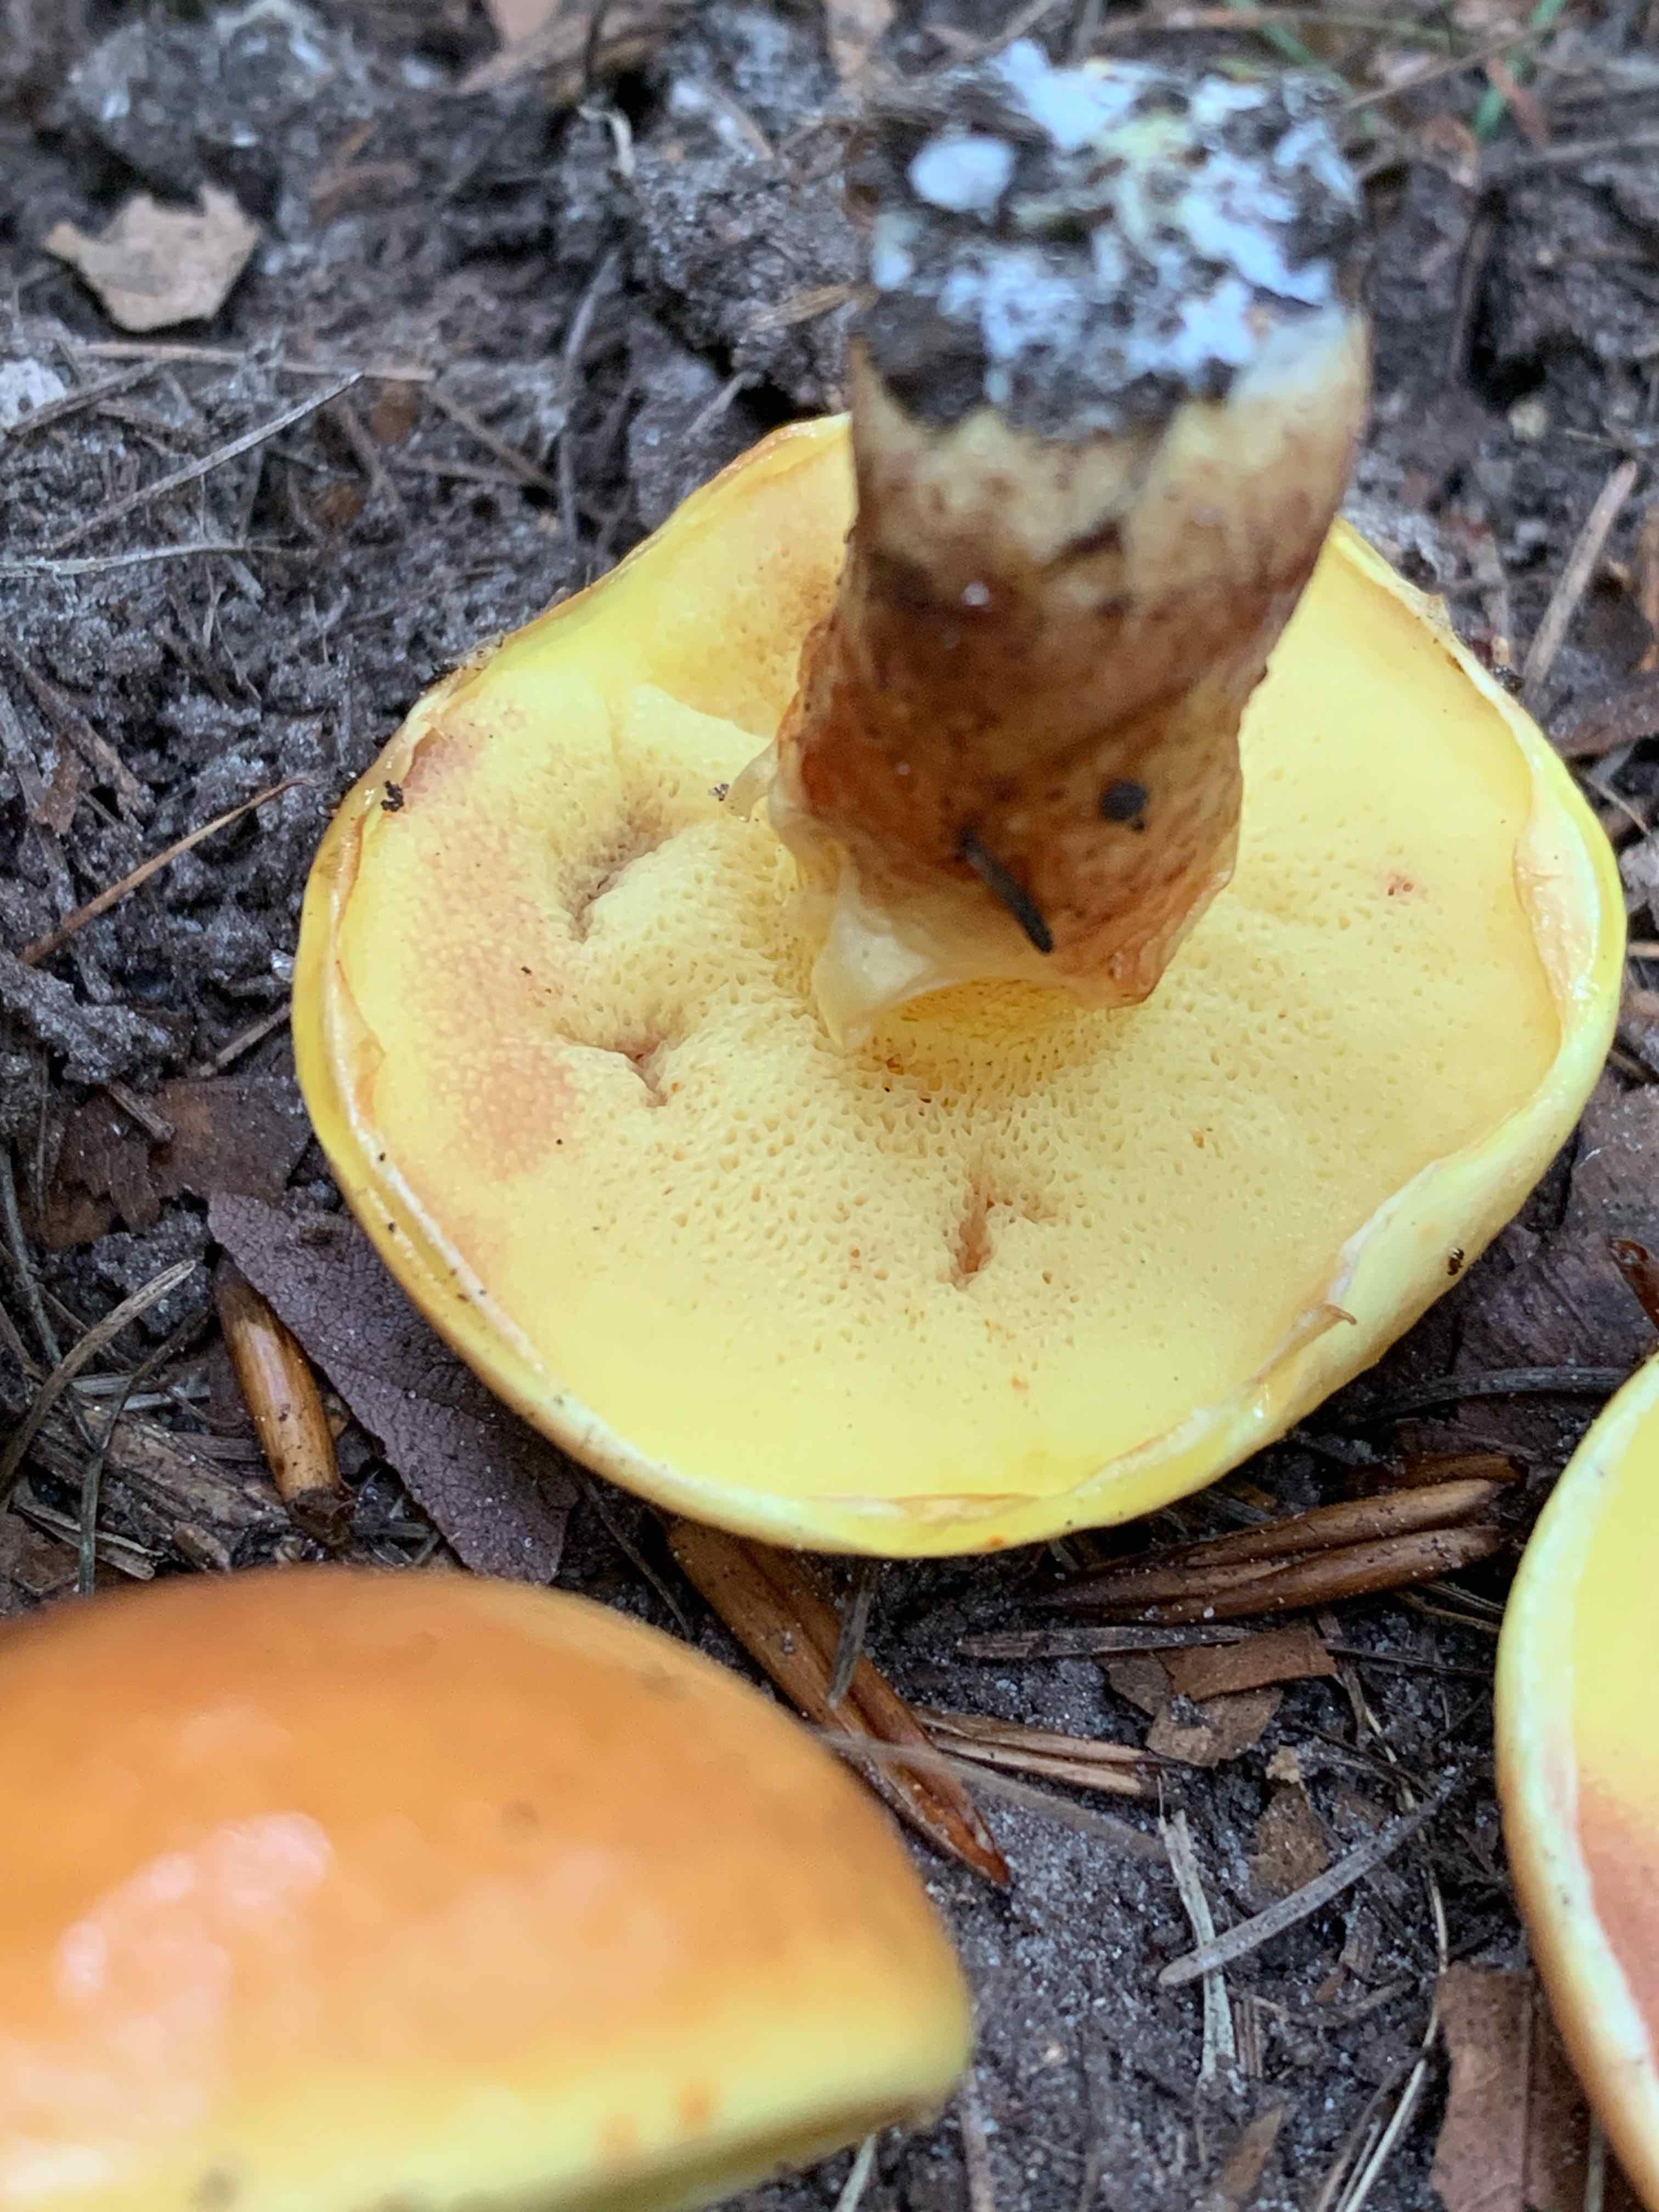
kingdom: Fungi
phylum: Basidiomycota
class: Agaricomycetes
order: Boletales
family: Suillaceae
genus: Suillus
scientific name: Suillus grevillei
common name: lærke-slimrørhat
